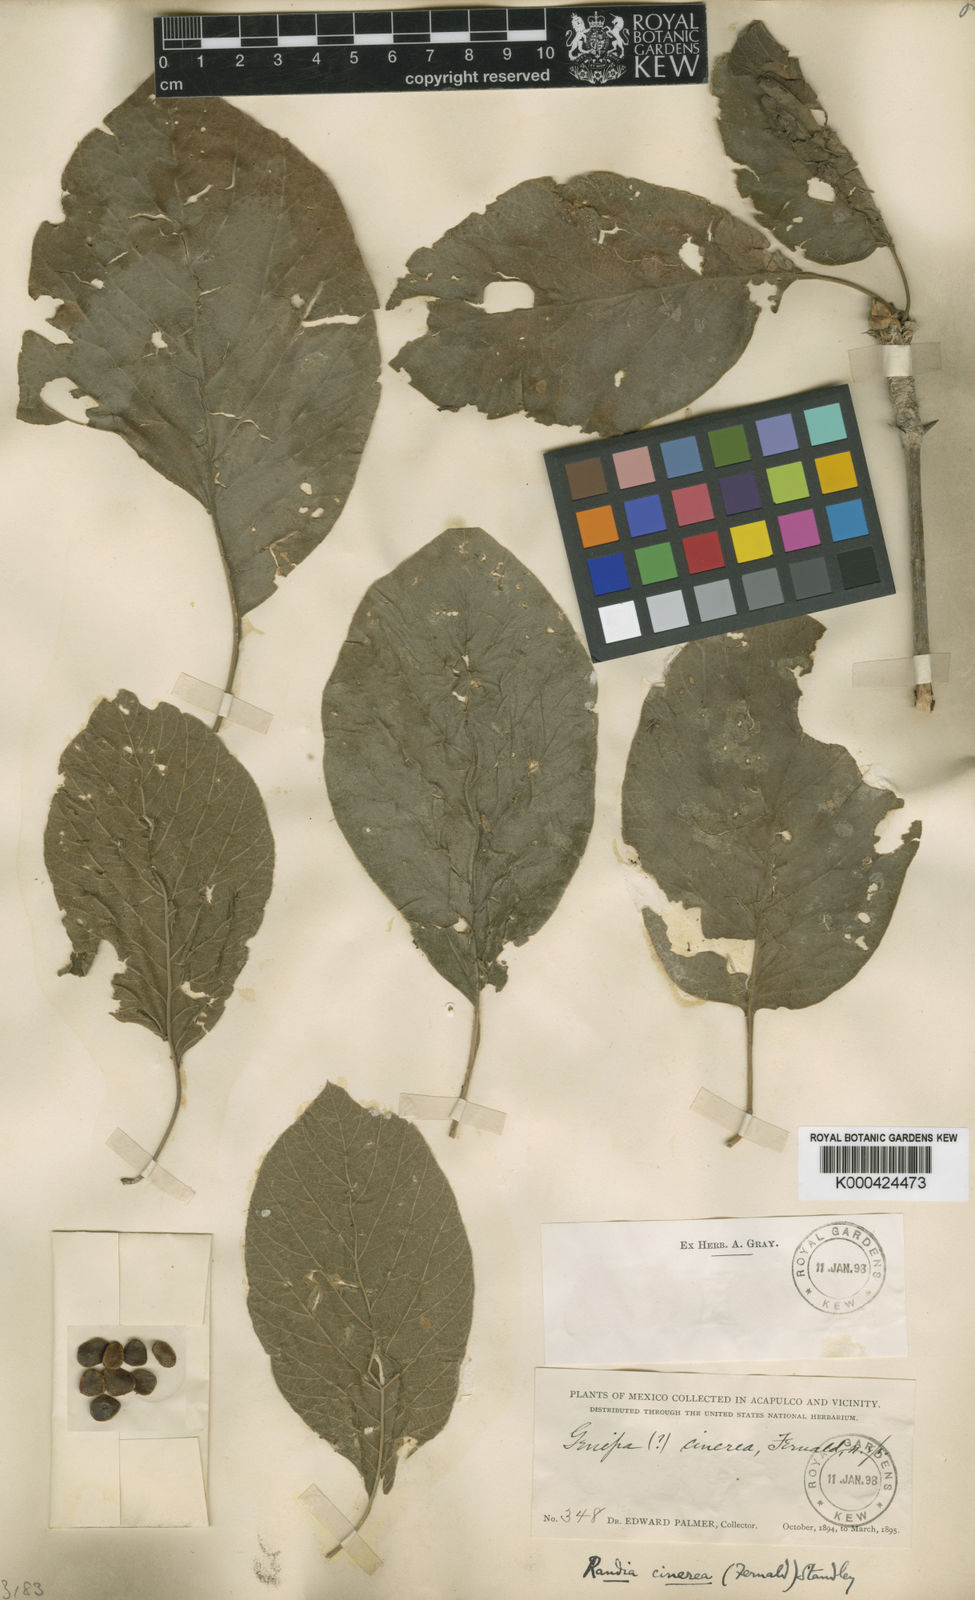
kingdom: Plantae
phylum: Tracheophyta
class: Magnoliopsida
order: Gentianales
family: Rubiaceae
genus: Randia
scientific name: Randia cinerea
